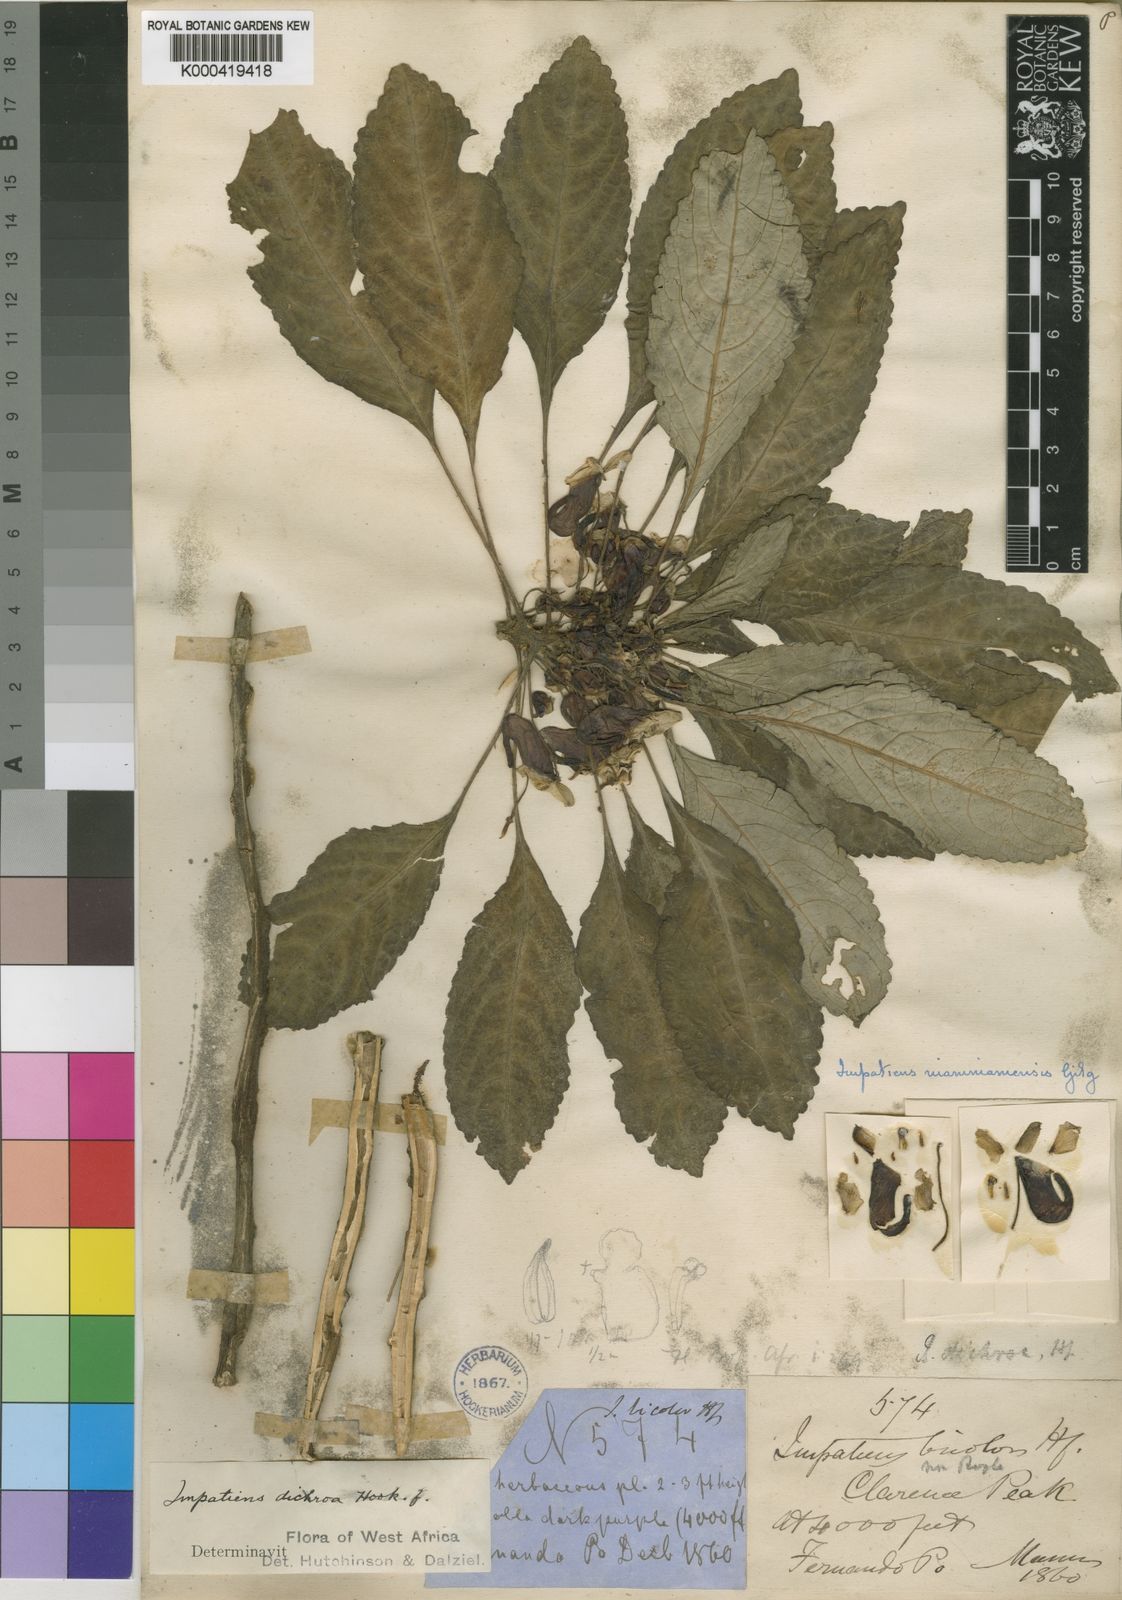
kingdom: Plantae
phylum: Tracheophyta
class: Magnoliopsida
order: Ericales
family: Balsaminaceae
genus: Impatiens
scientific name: Impatiens niamniamensis
